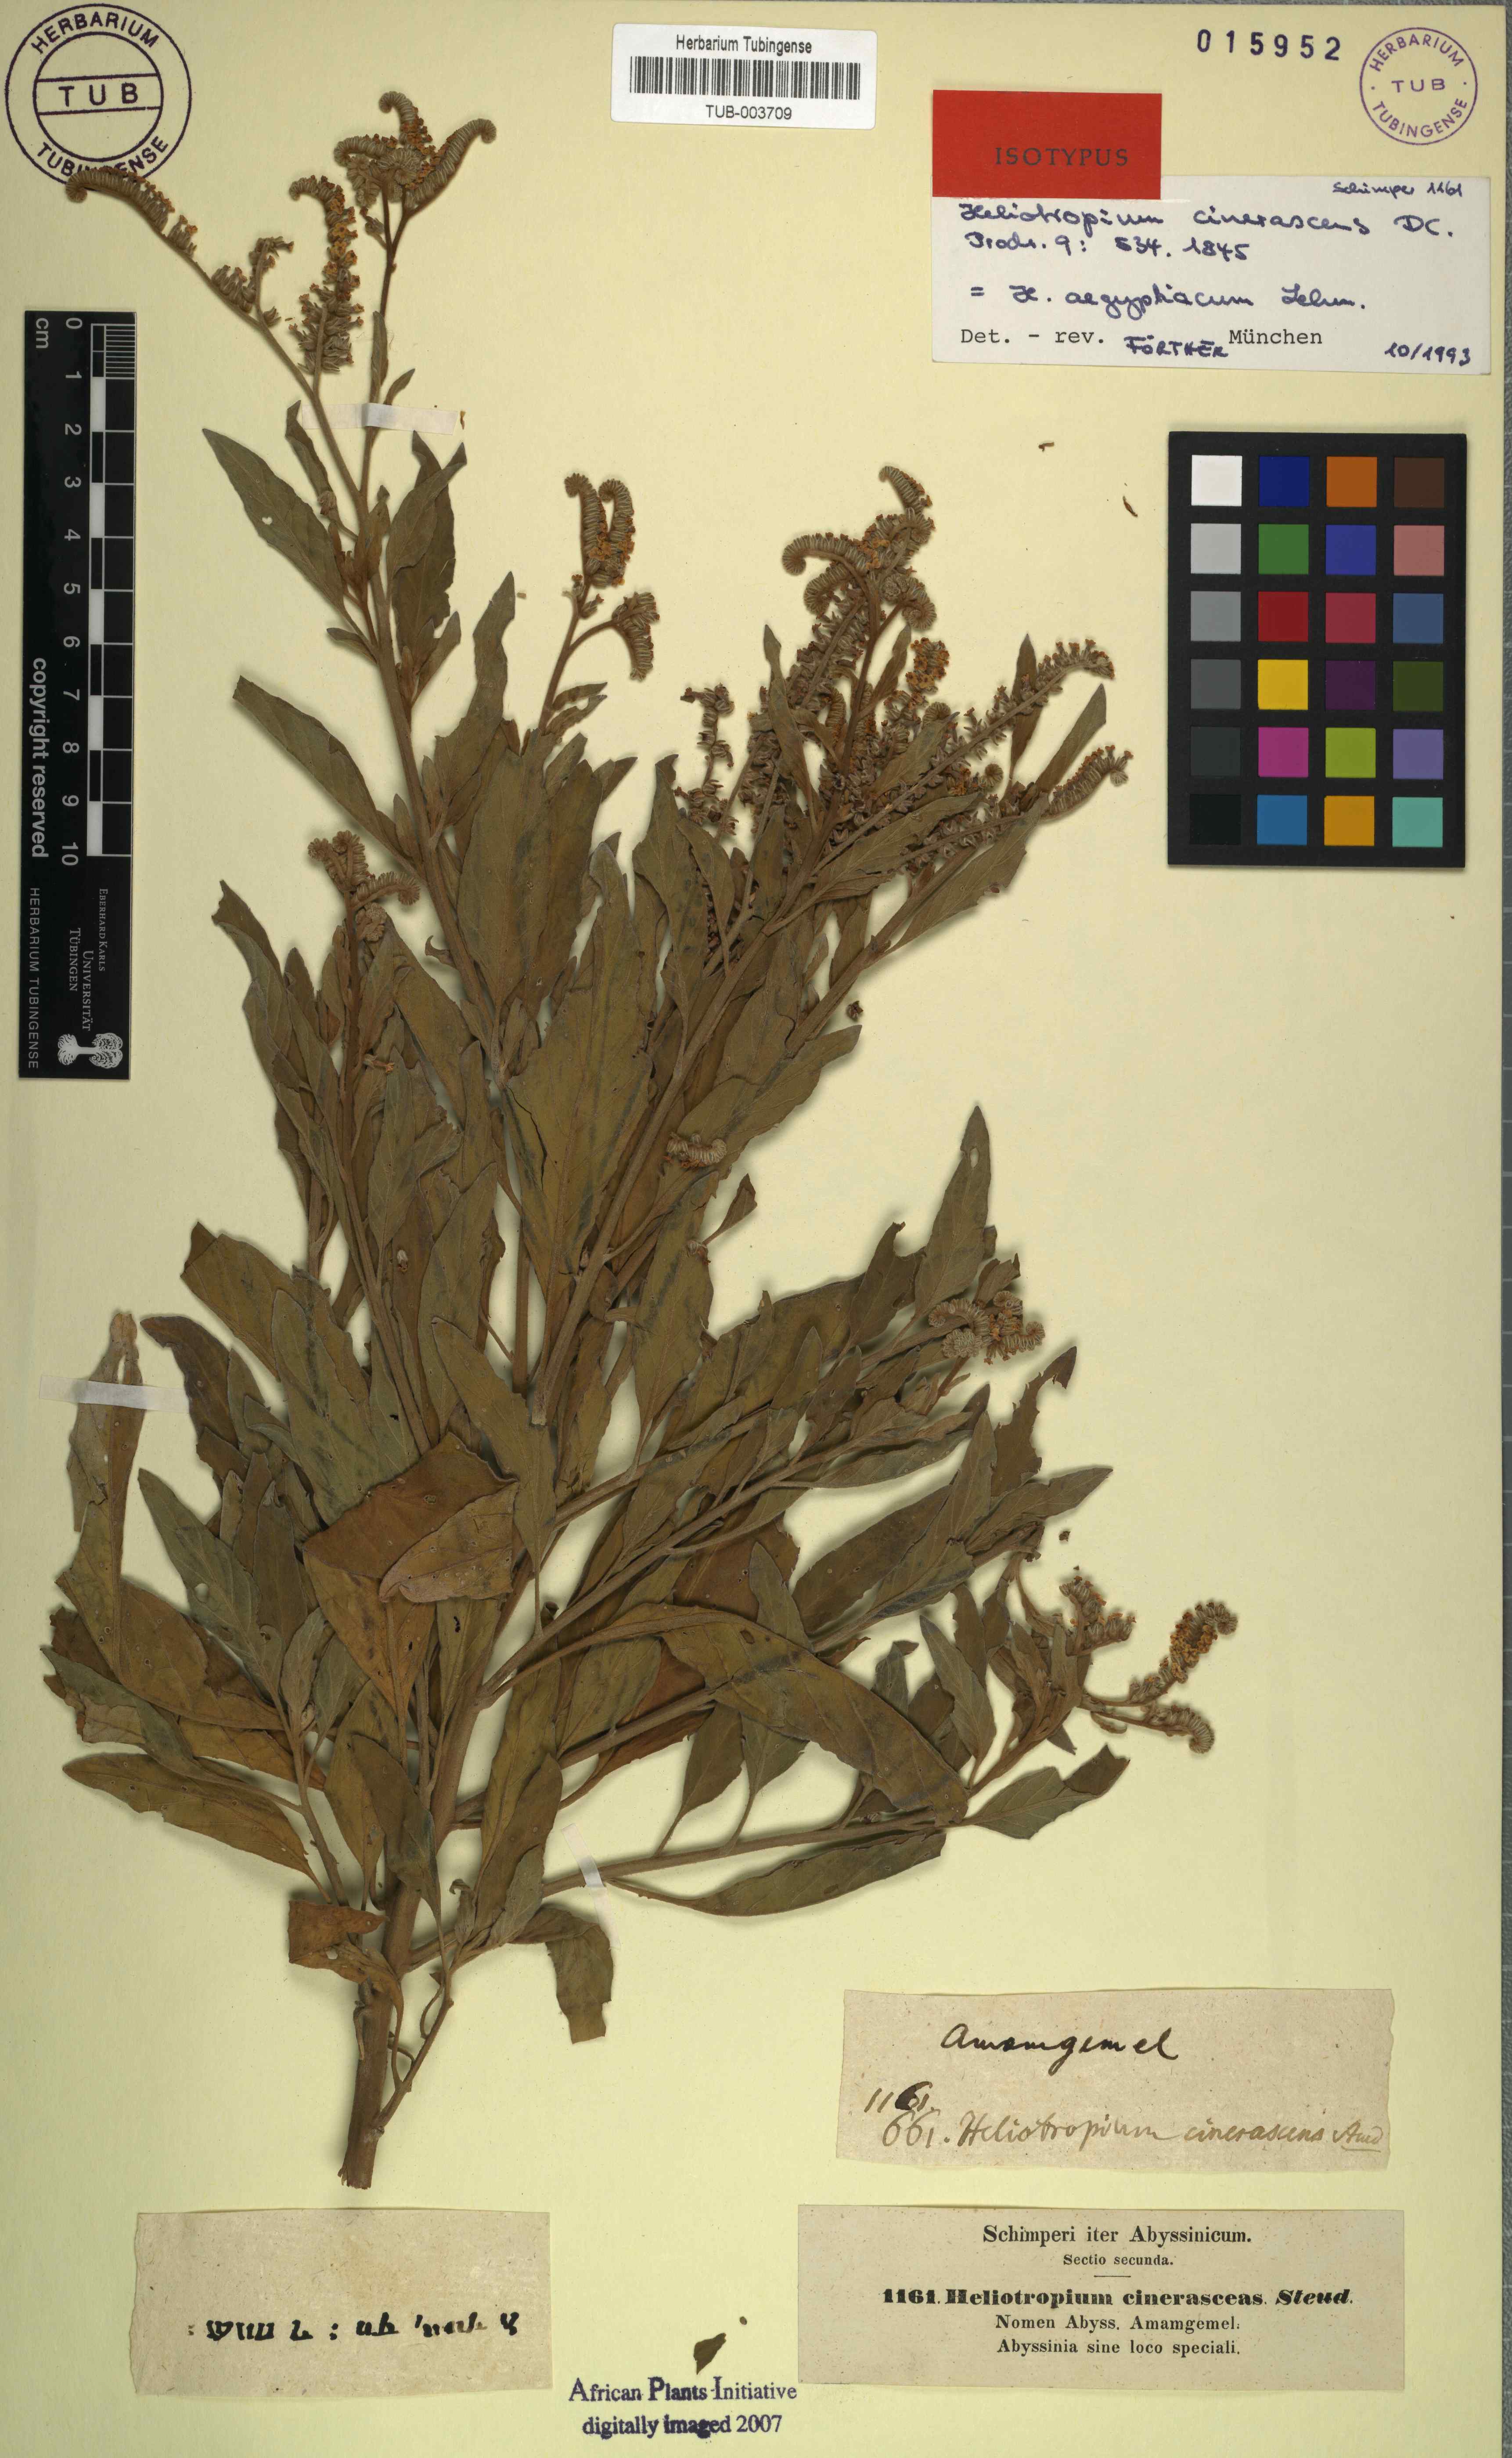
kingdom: Plantae
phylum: Tracheophyta
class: Magnoliopsida
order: Boraginales
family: Heliotropiaceae
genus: Heliotropium
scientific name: Heliotropium aegyptiacum
